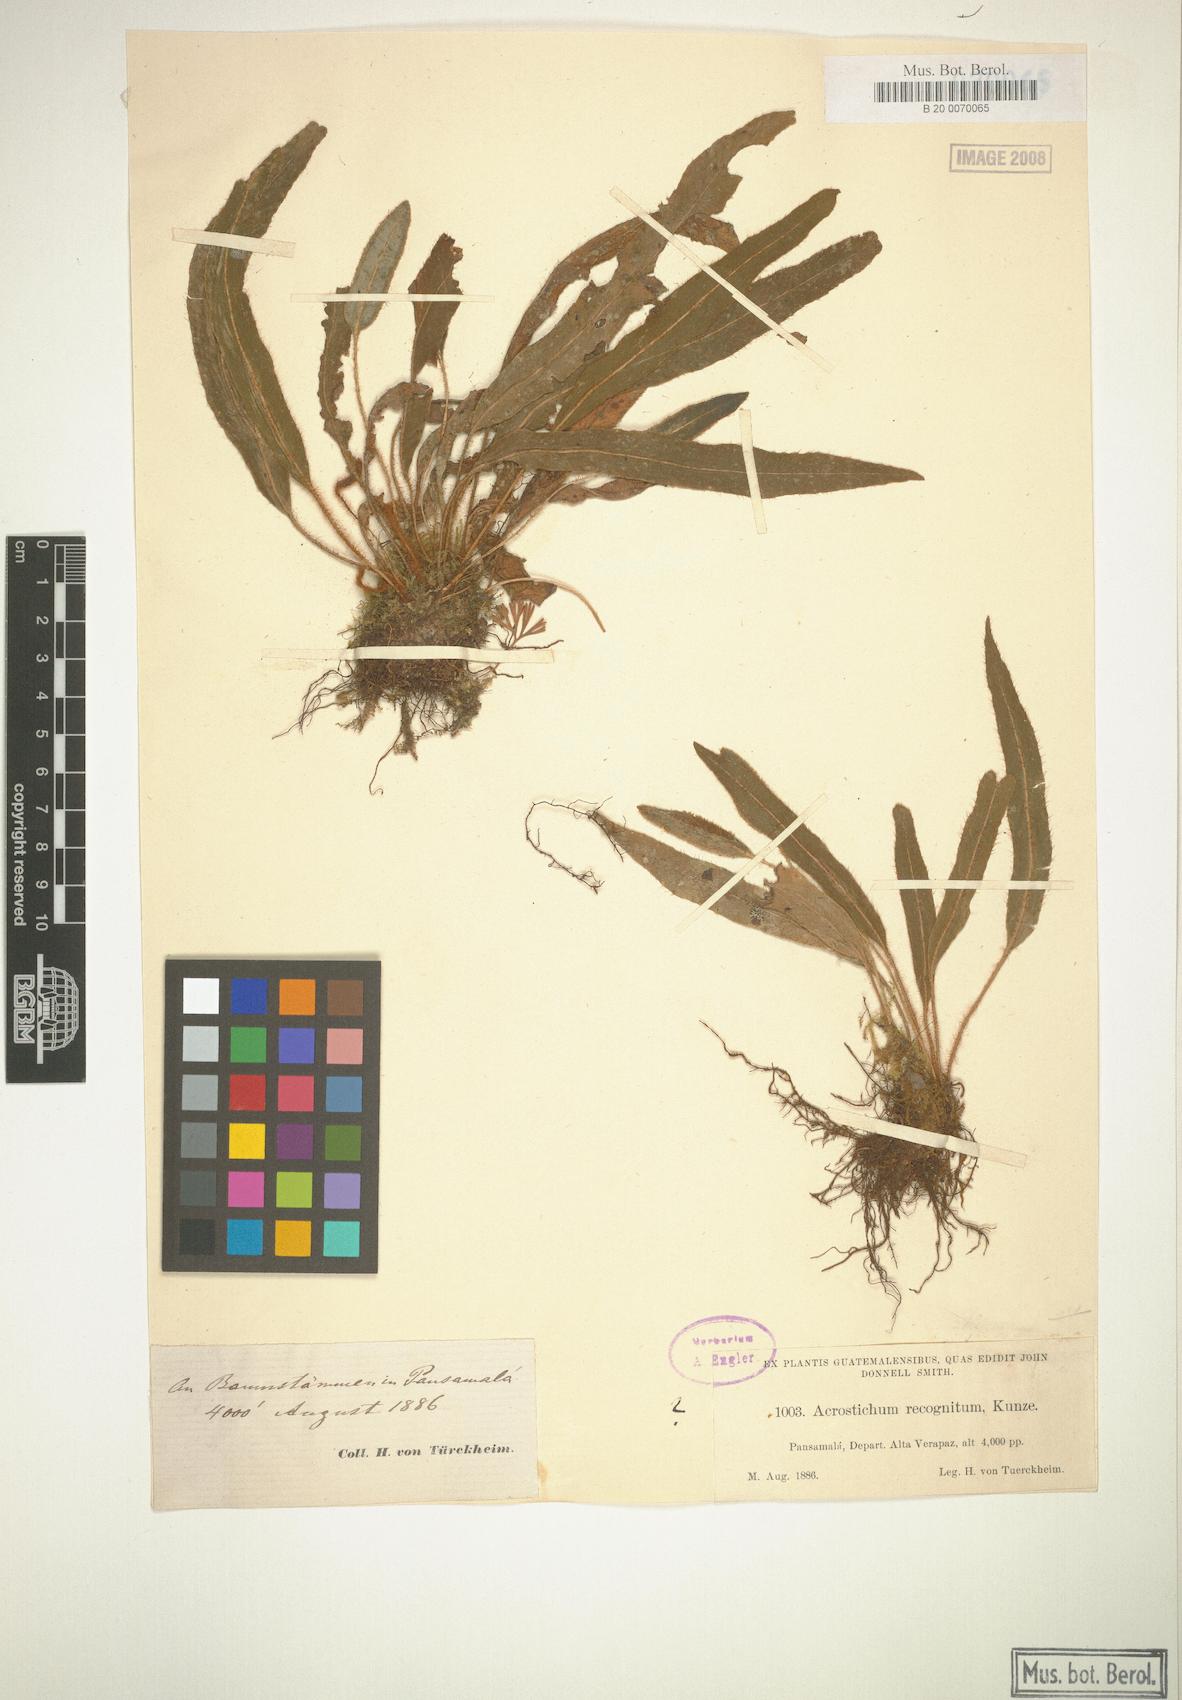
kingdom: Plantae
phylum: Tracheophyta
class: Polypodiopsida
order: Polypodiales
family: Dryopteridaceae
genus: Elaphoglossum
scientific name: Elaphoglossum setosum
